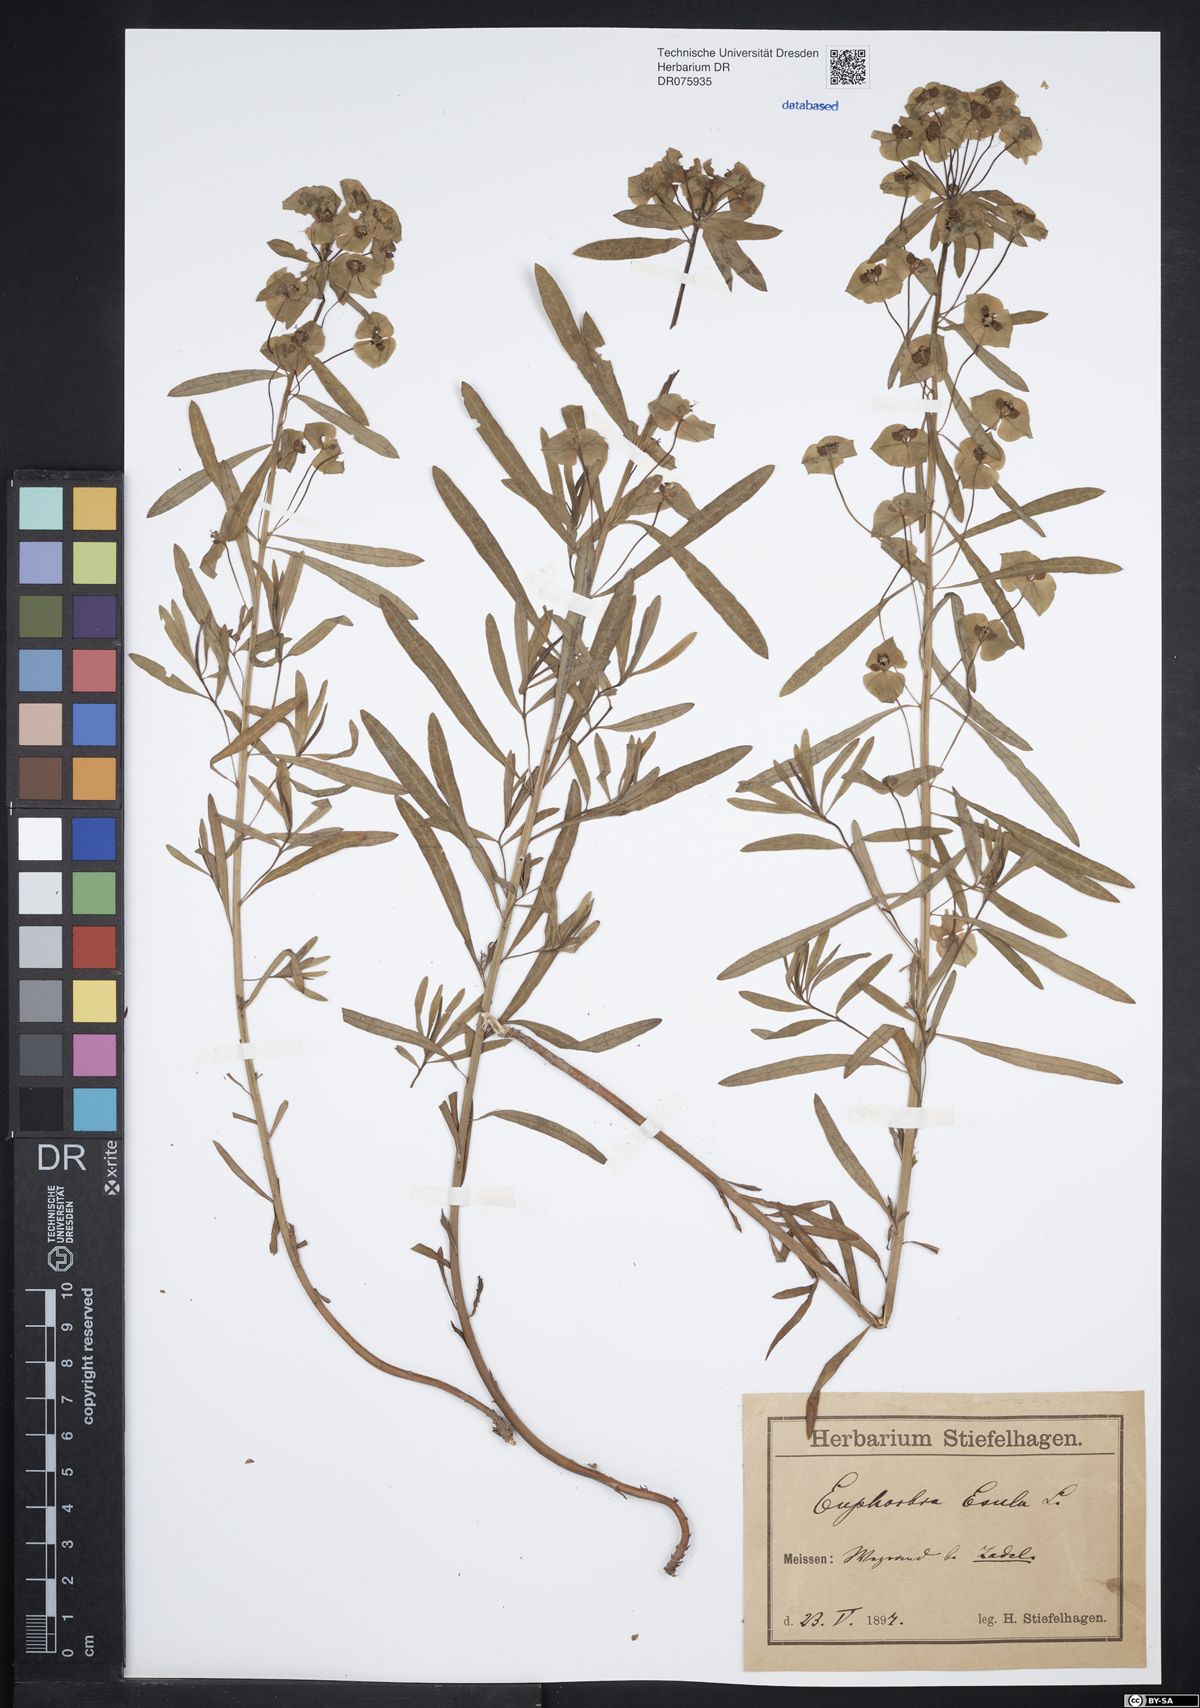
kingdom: Plantae
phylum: Tracheophyta
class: Magnoliopsida
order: Malpighiales
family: Euphorbiaceae
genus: Euphorbia
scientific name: Euphorbia esula
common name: Leafy spurge
